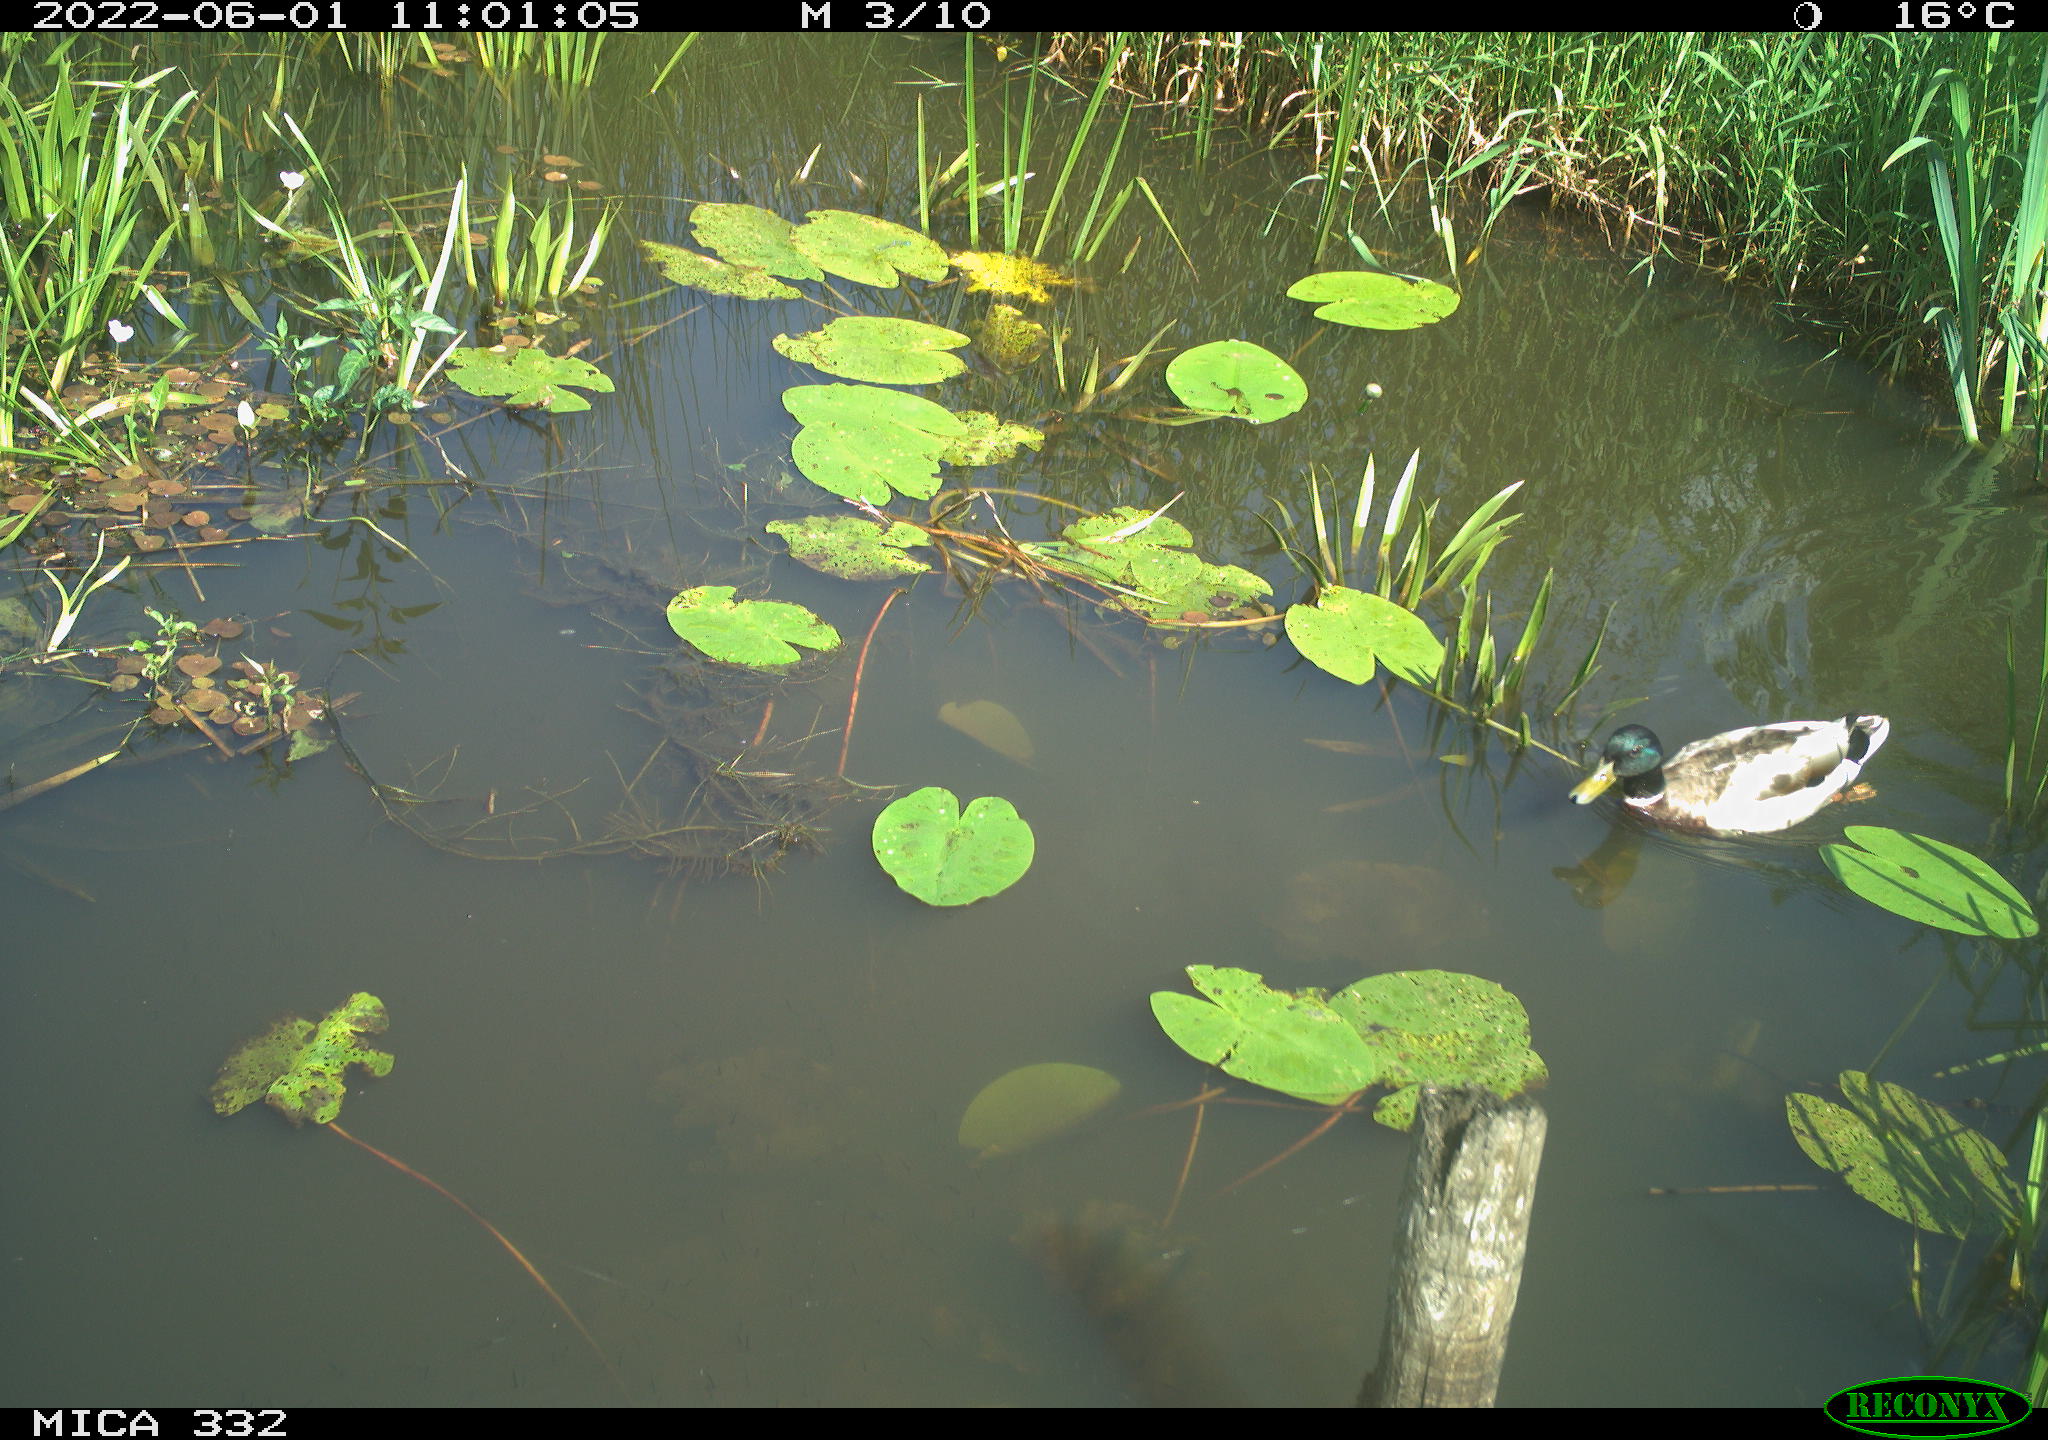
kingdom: Animalia
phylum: Chordata
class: Aves
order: Anseriformes
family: Anatidae
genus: Anas
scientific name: Anas platyrhynchos
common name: Mallard
